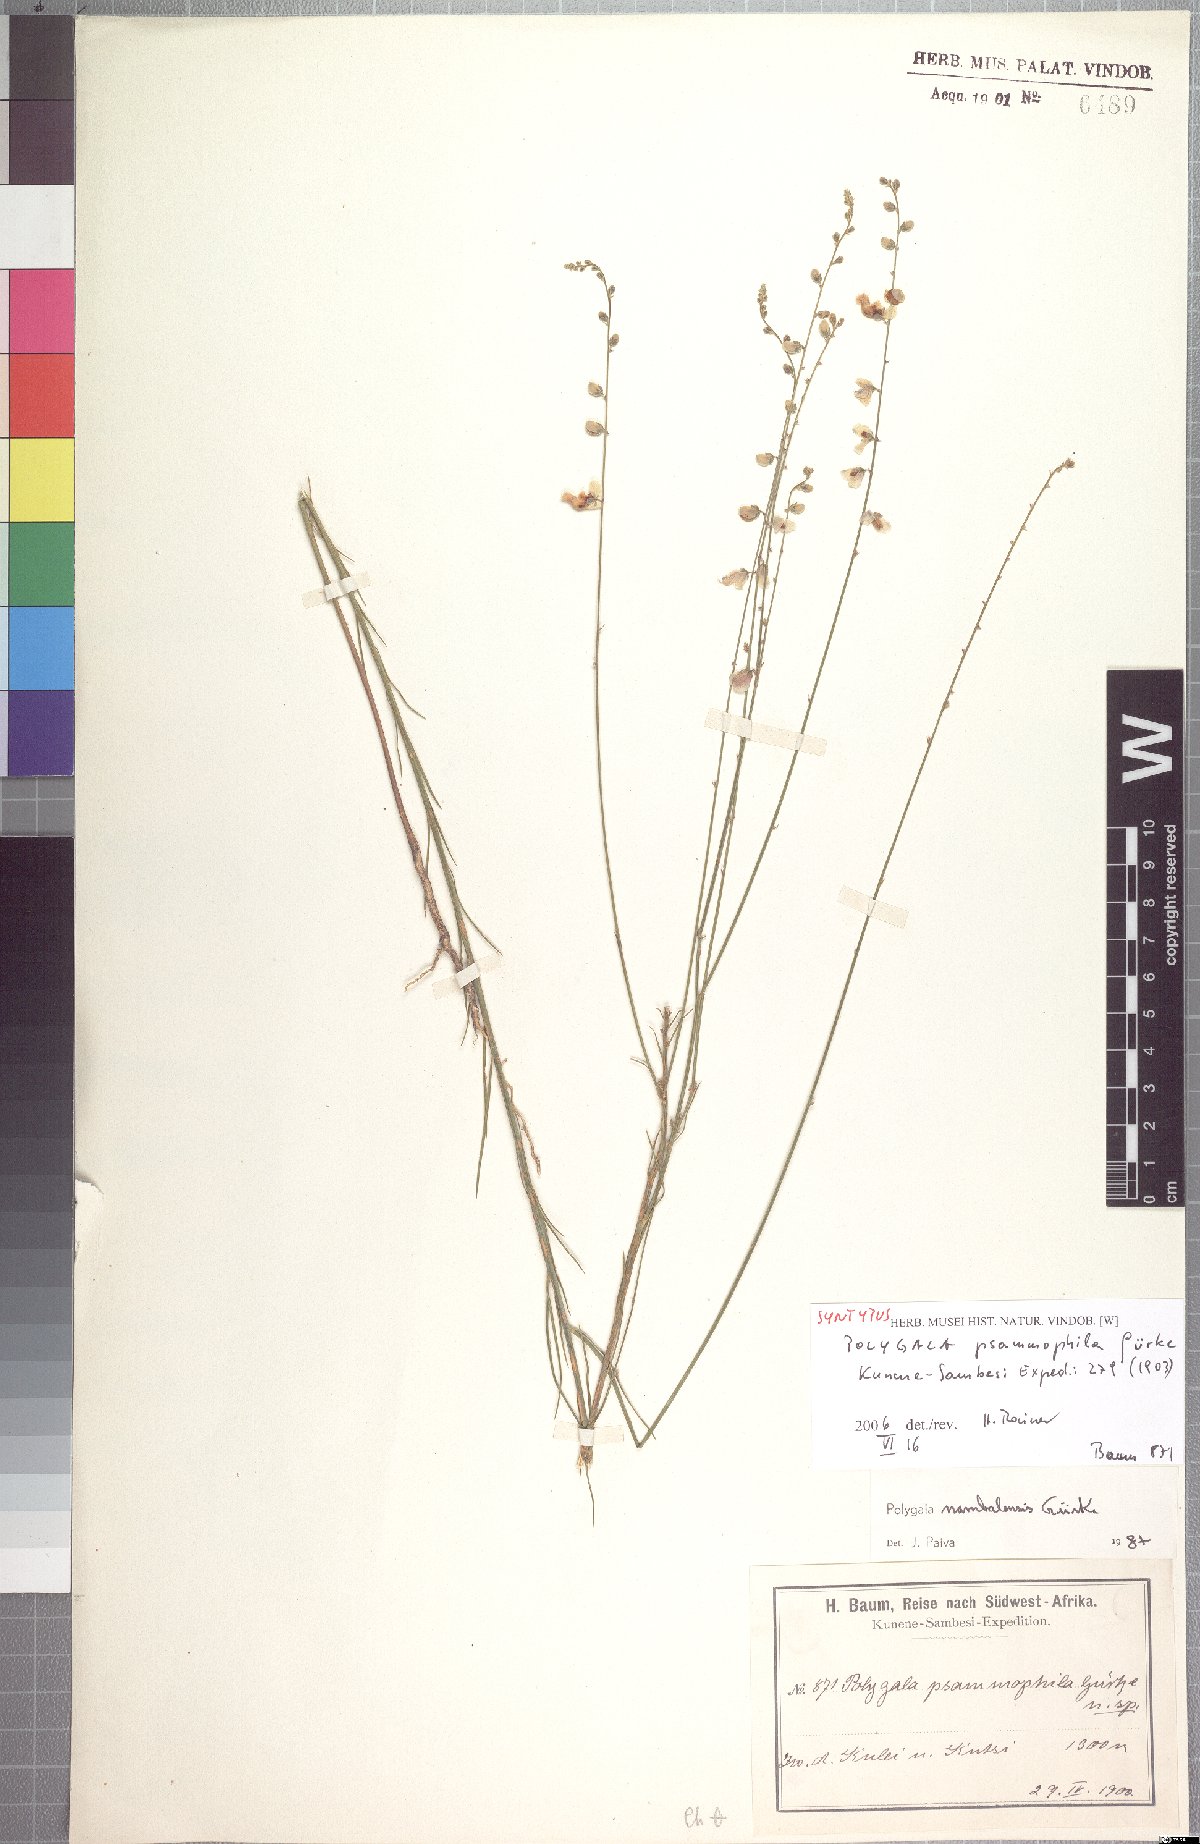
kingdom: Plantae
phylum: Tracheophyta
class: Magnoliopsida
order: Fabales
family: Polygalaceae
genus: Polygala
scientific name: Polygala nambalensis
